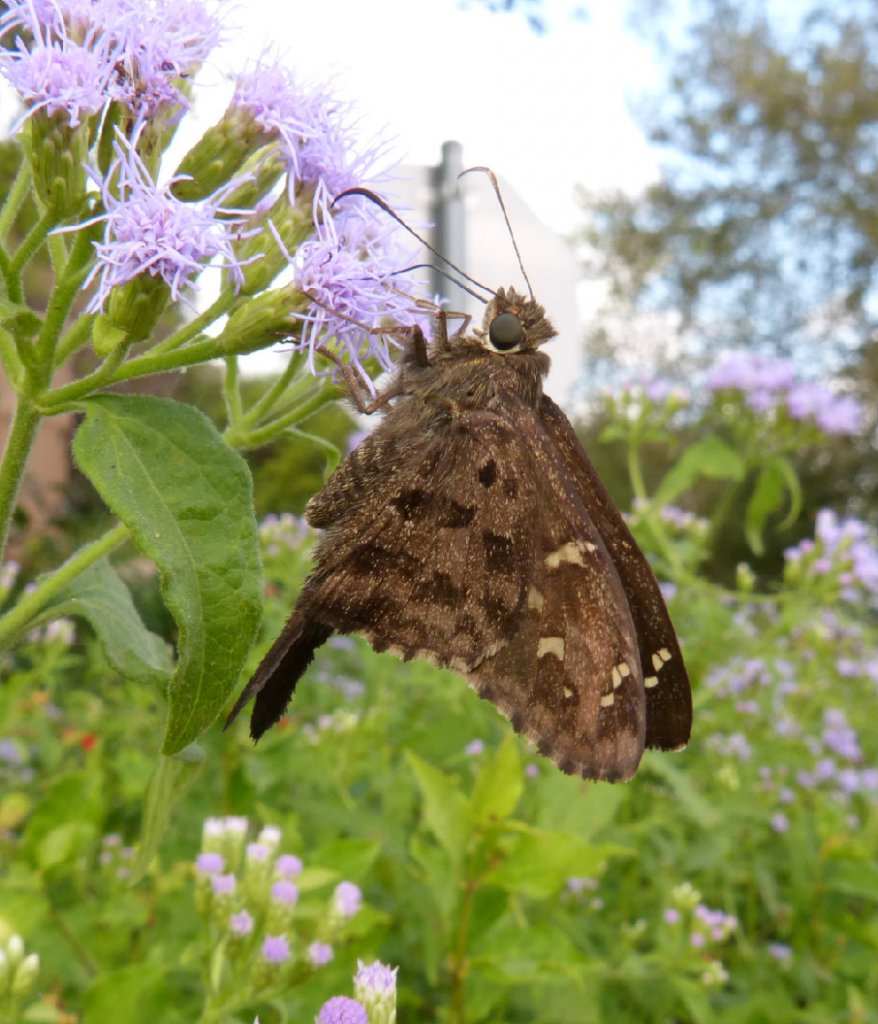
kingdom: Animalia
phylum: Arthropoda
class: Insecta
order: Lepidoptera
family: Hesperiidae
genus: Urbanus
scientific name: Urbanus dorantes
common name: Dorantes Longtail
